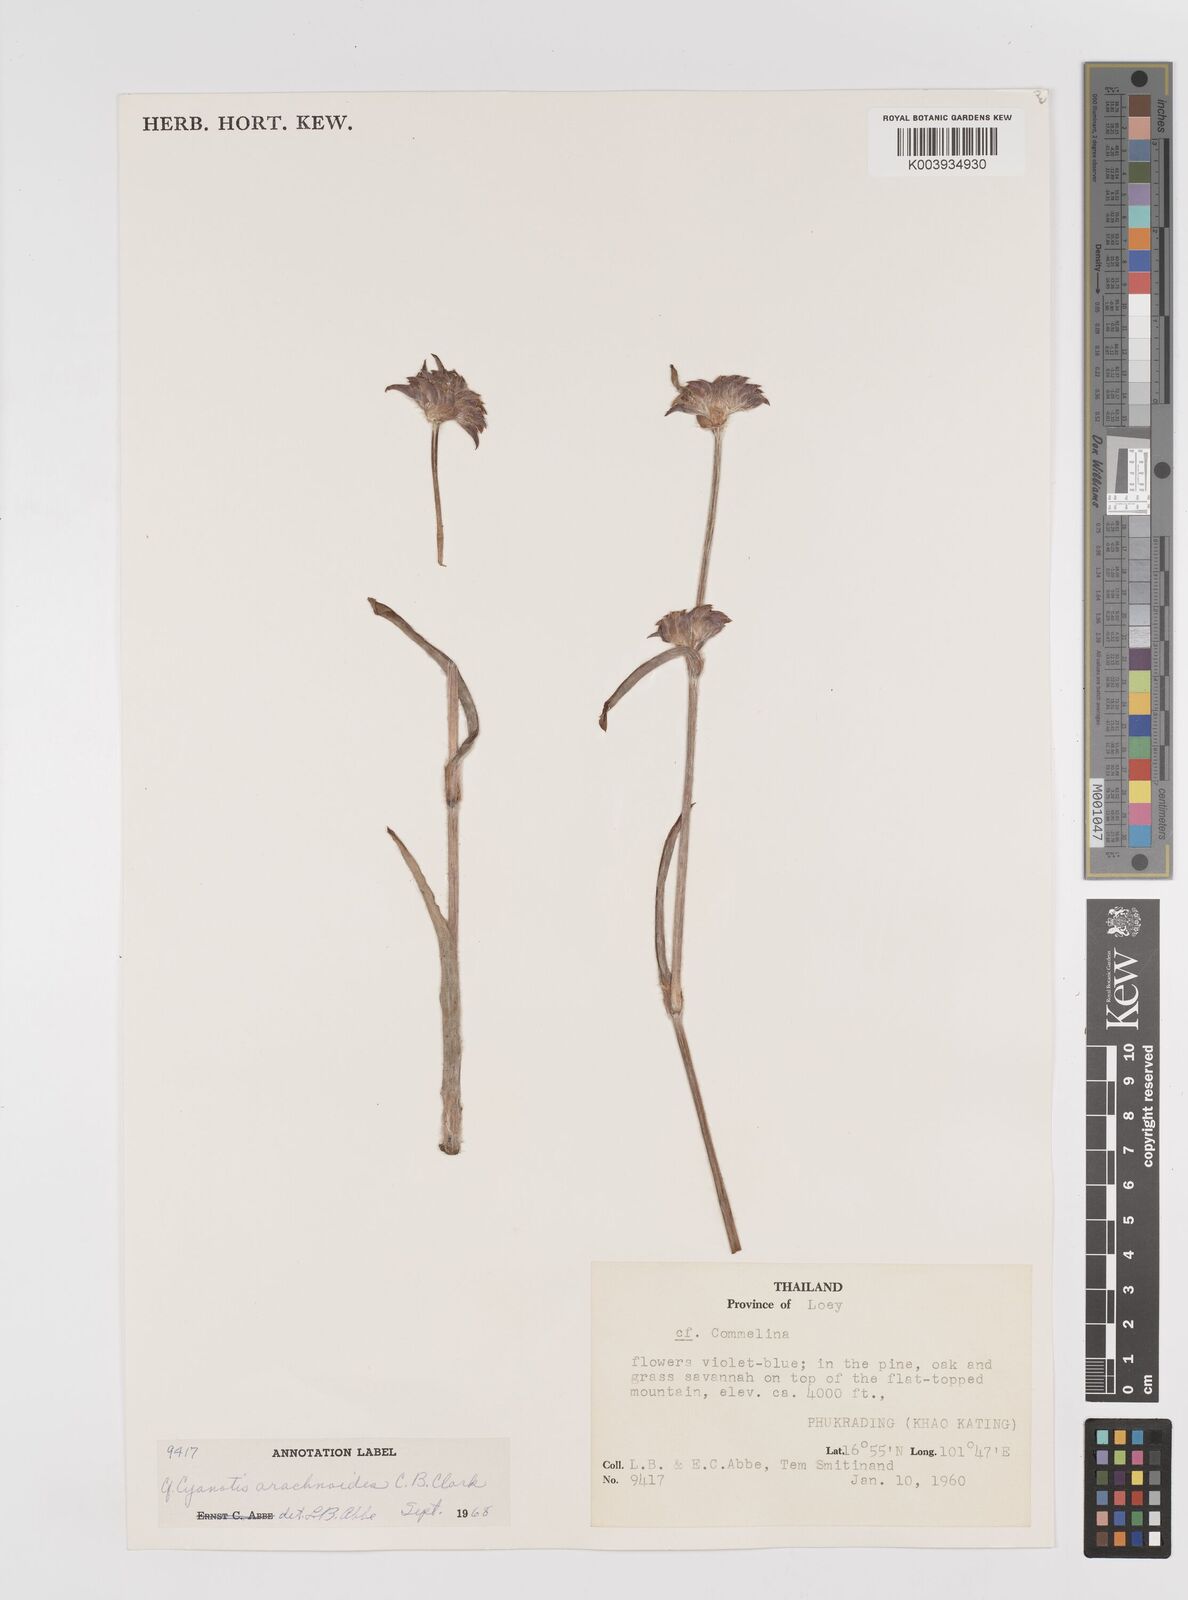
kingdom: Plantae
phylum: Tracheophyta
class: Liliopsida
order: Commelinales
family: Commelinaceae
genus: Cyanotis
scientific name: Cyanotis tuberosa
